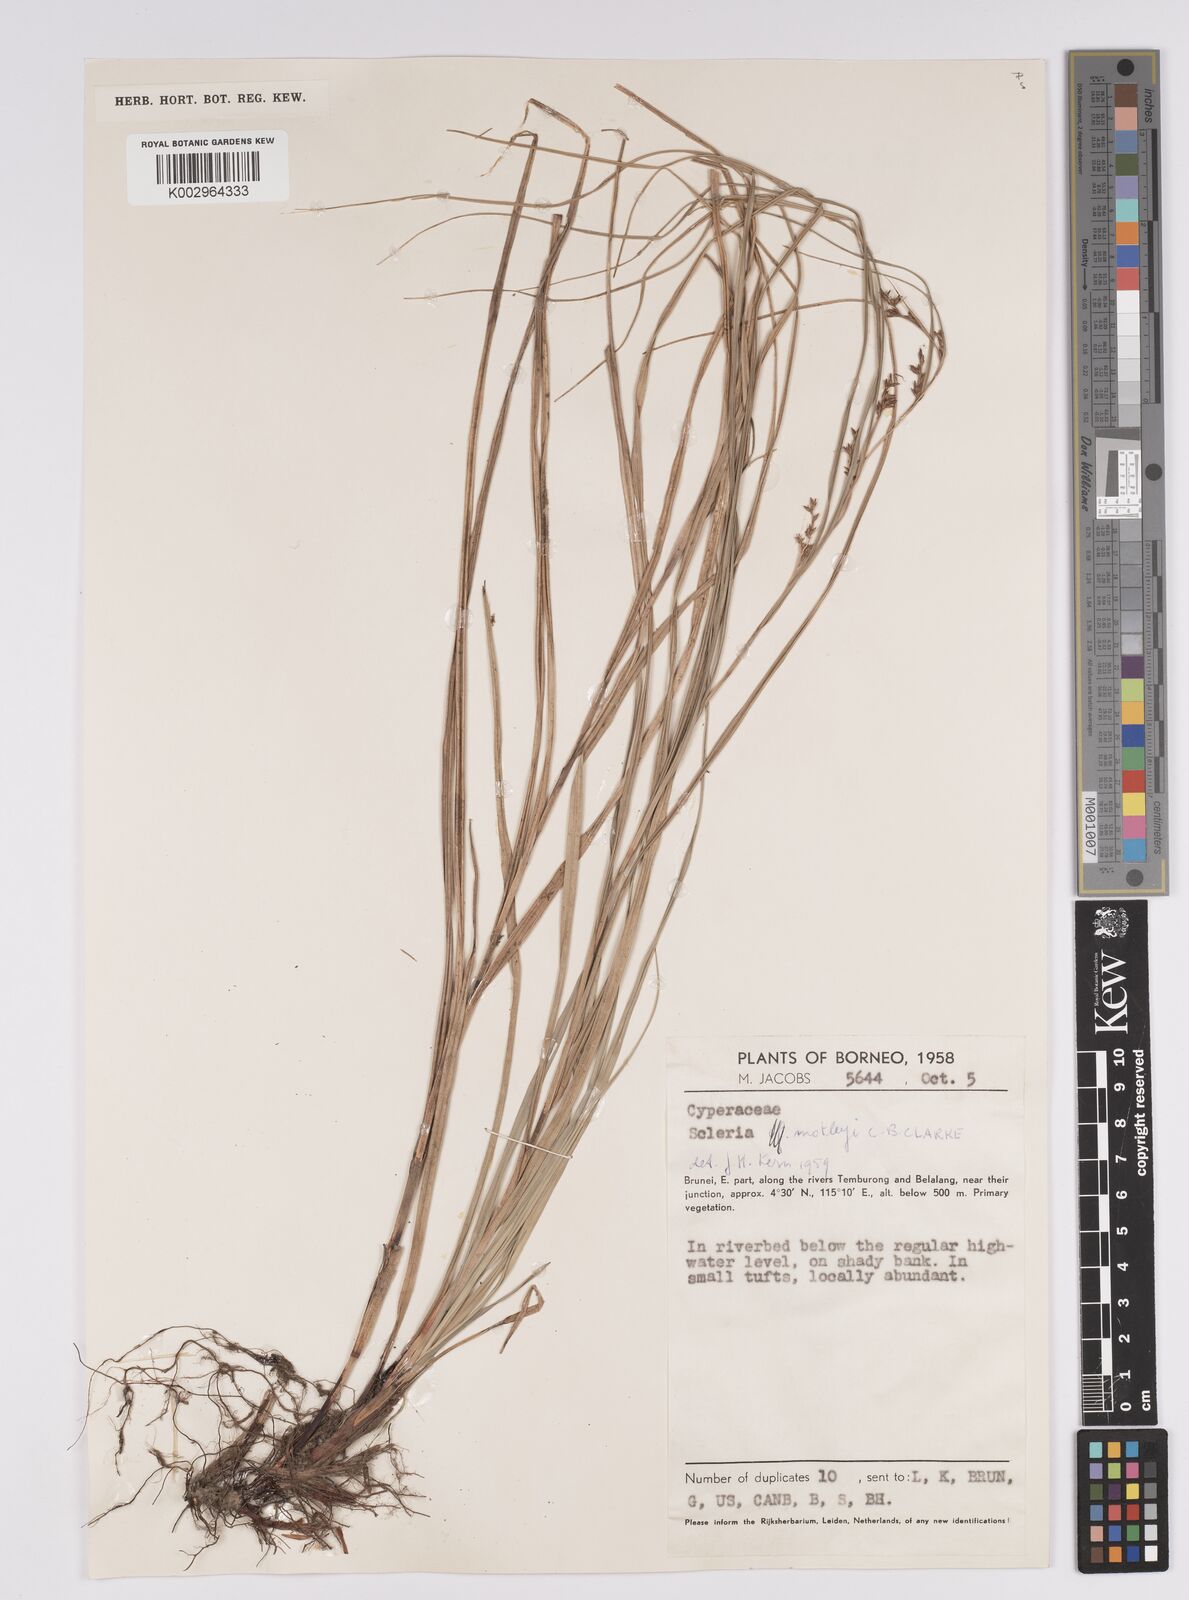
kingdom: Plantae
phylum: Tracheophyta
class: Liliopsida
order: Poales
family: Cyperaceae
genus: Scleria
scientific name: Scleria motleyi
